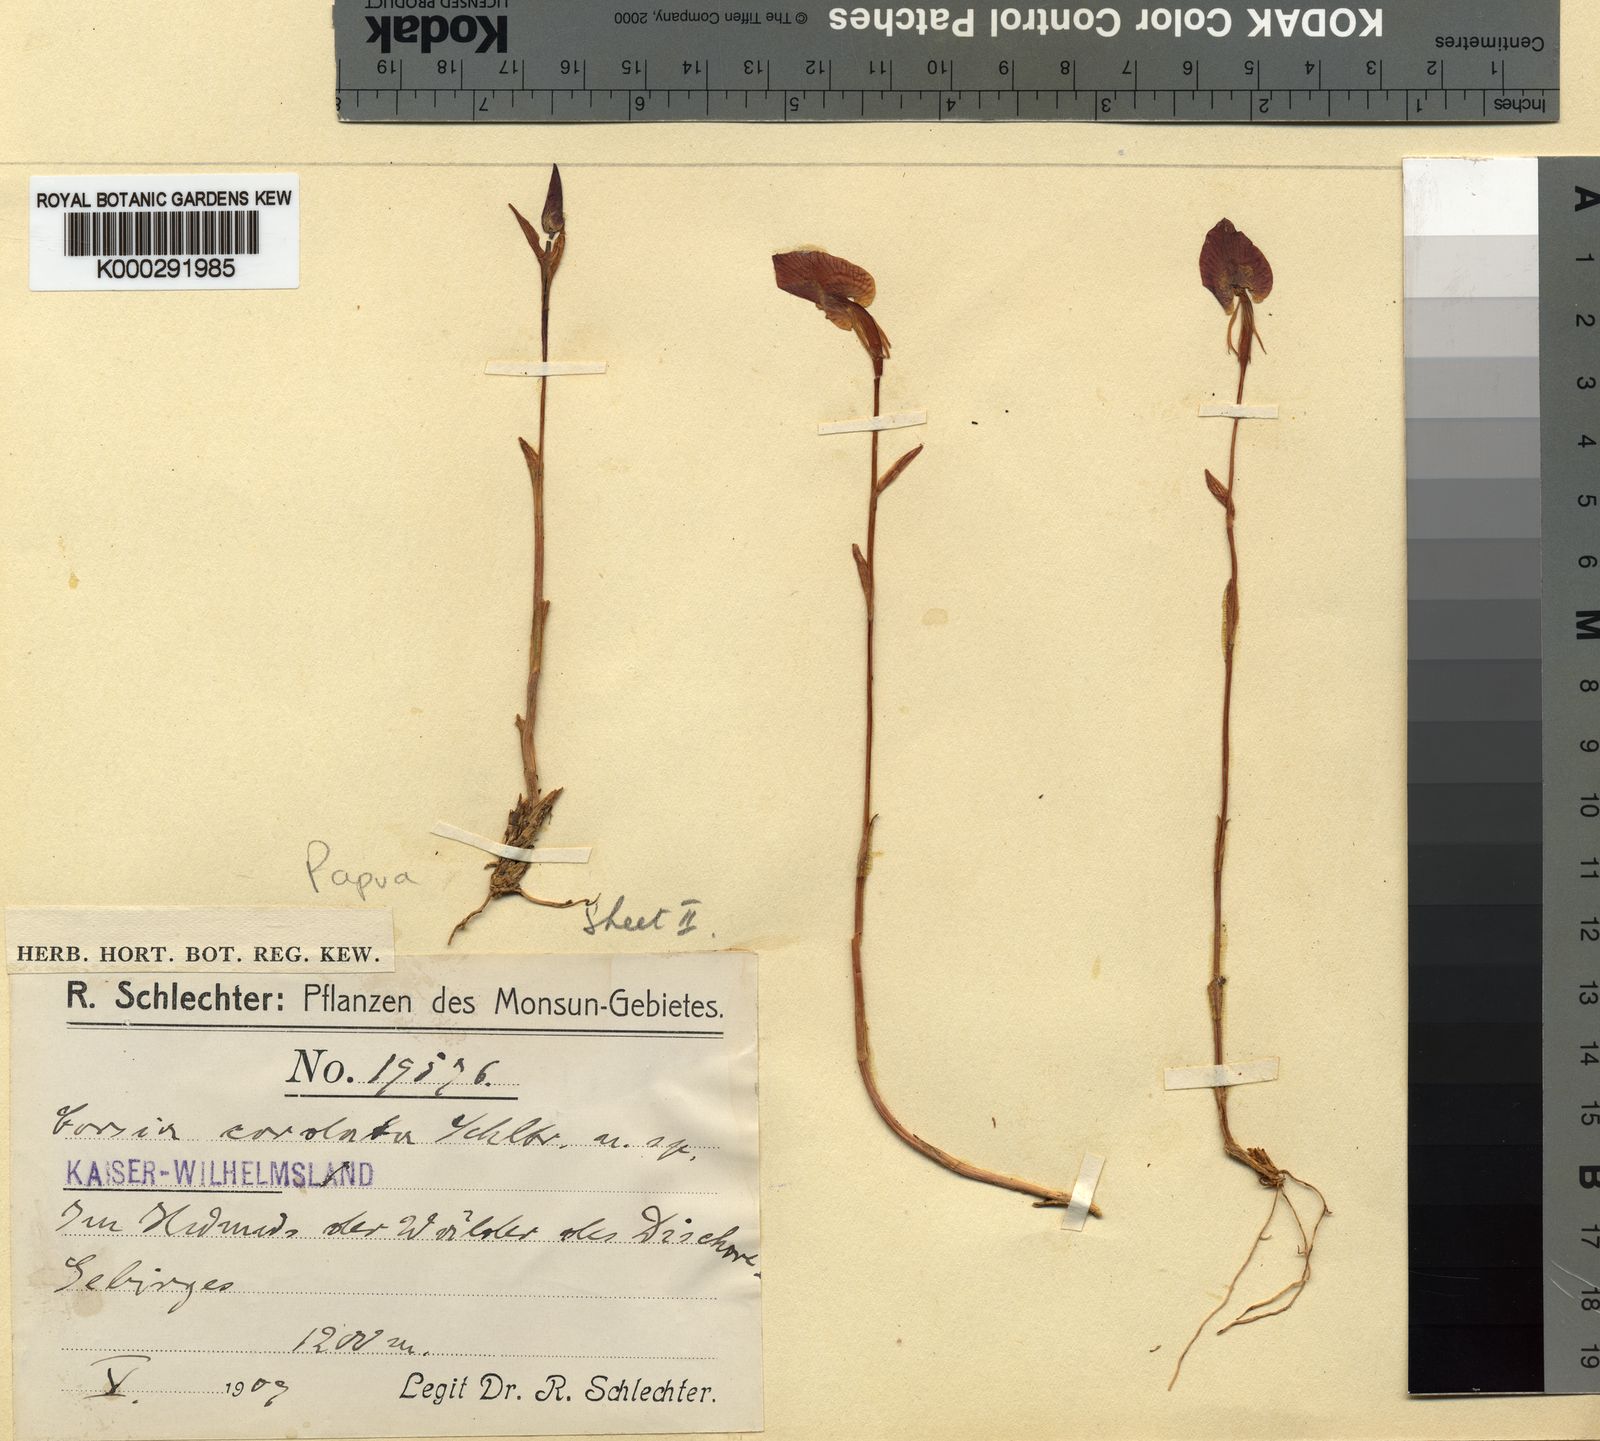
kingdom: Plantae
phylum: Tracheophyta
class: Liliopsida
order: Liliales
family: Corsiaceae
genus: Corsia
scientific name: Corsia cordata
